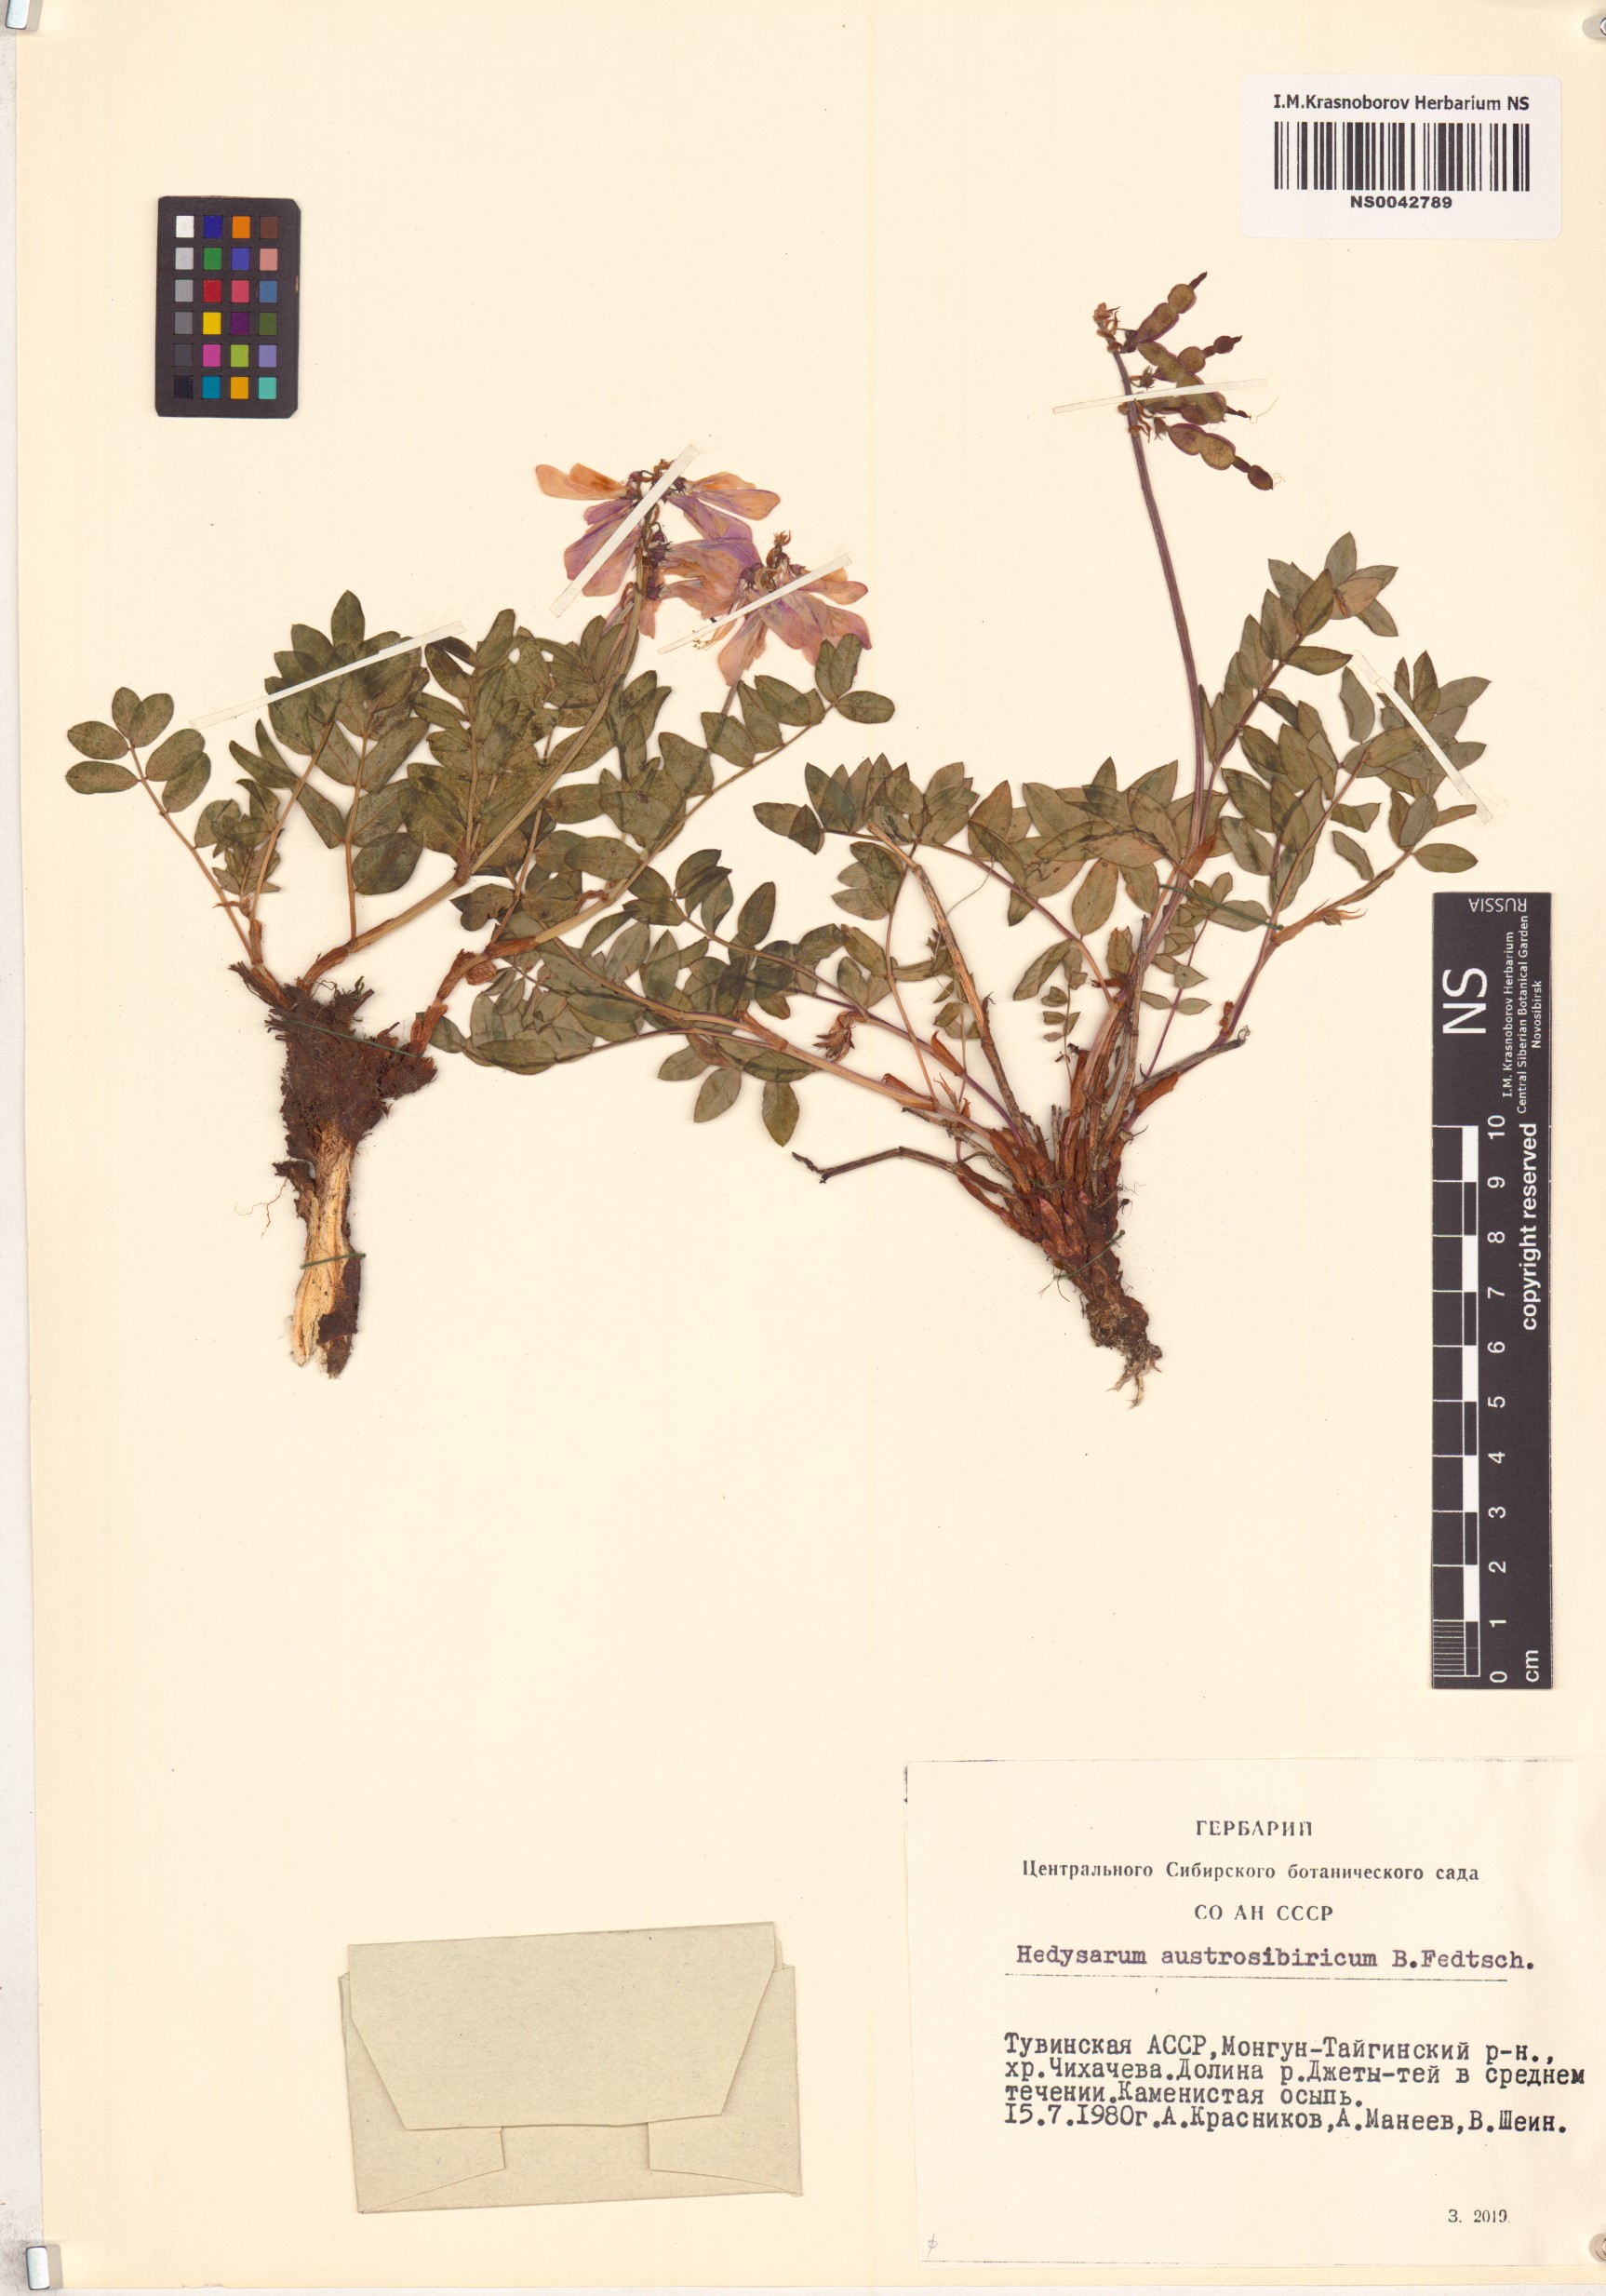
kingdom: Plantae
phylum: Tracheophyta
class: Magnoliopsida
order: Fabales
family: Fabaceae
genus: Hedysarum
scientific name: Hedysarum neglectum
